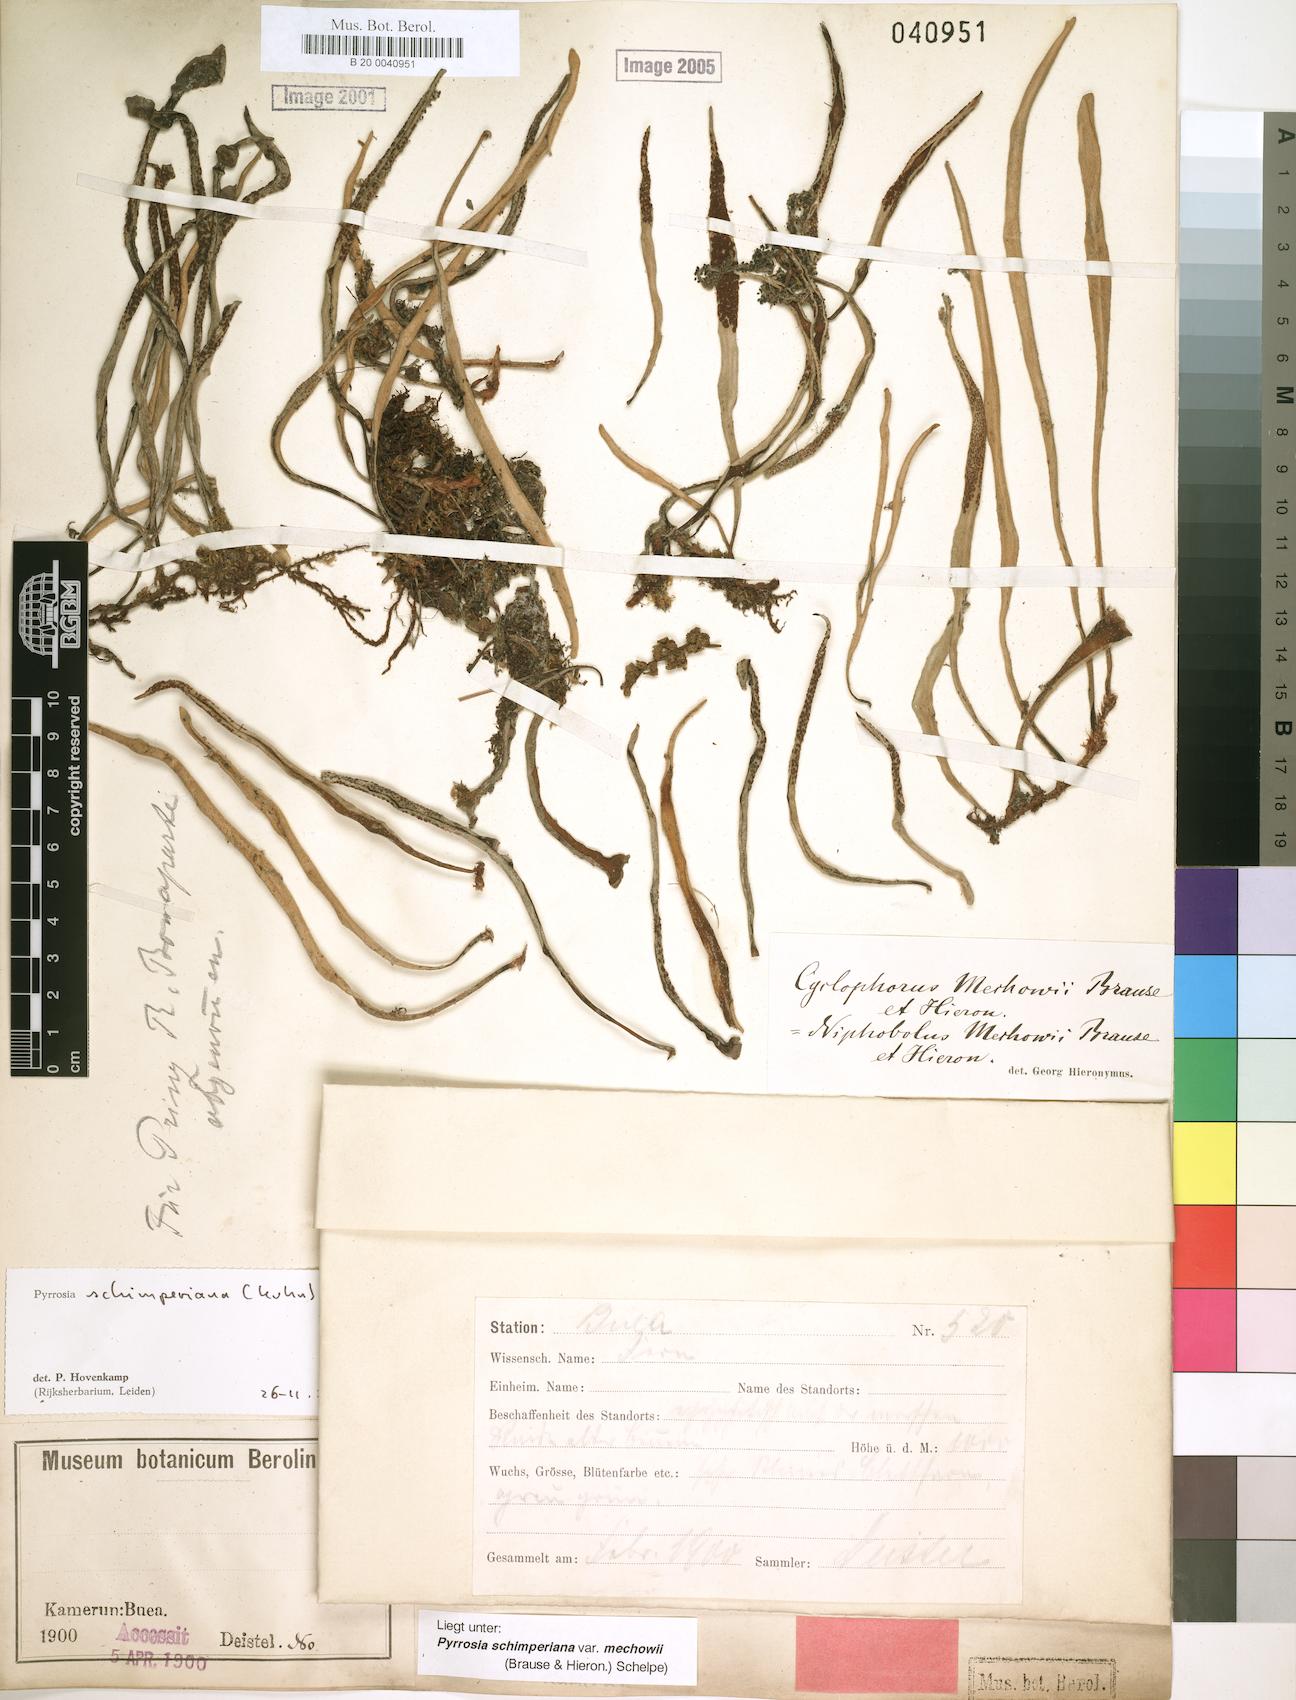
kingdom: Plantae
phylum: Tracheophyta
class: Polypodiopsida
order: Polypodiales
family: Polypodiaceae
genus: Hovenkampia
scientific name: Hovenkampia schimperiana
